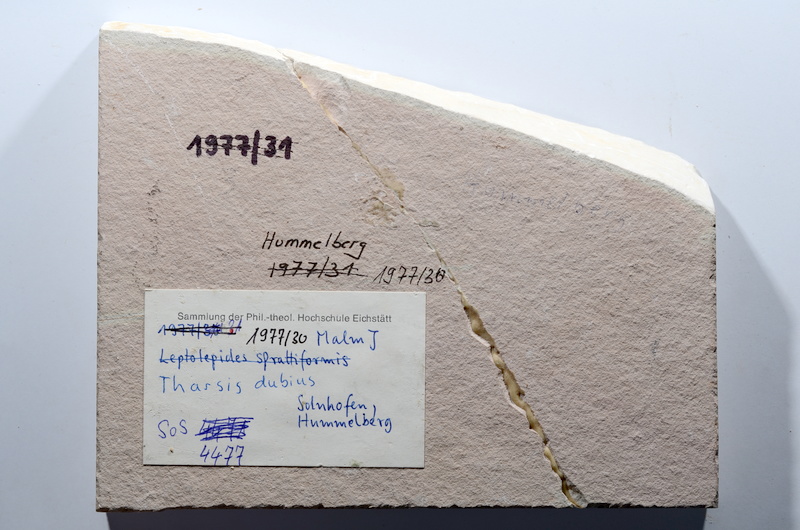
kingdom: Animalia
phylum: Chordata
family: Ascalaboidae
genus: Tharsis
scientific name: Tharsis dubius
